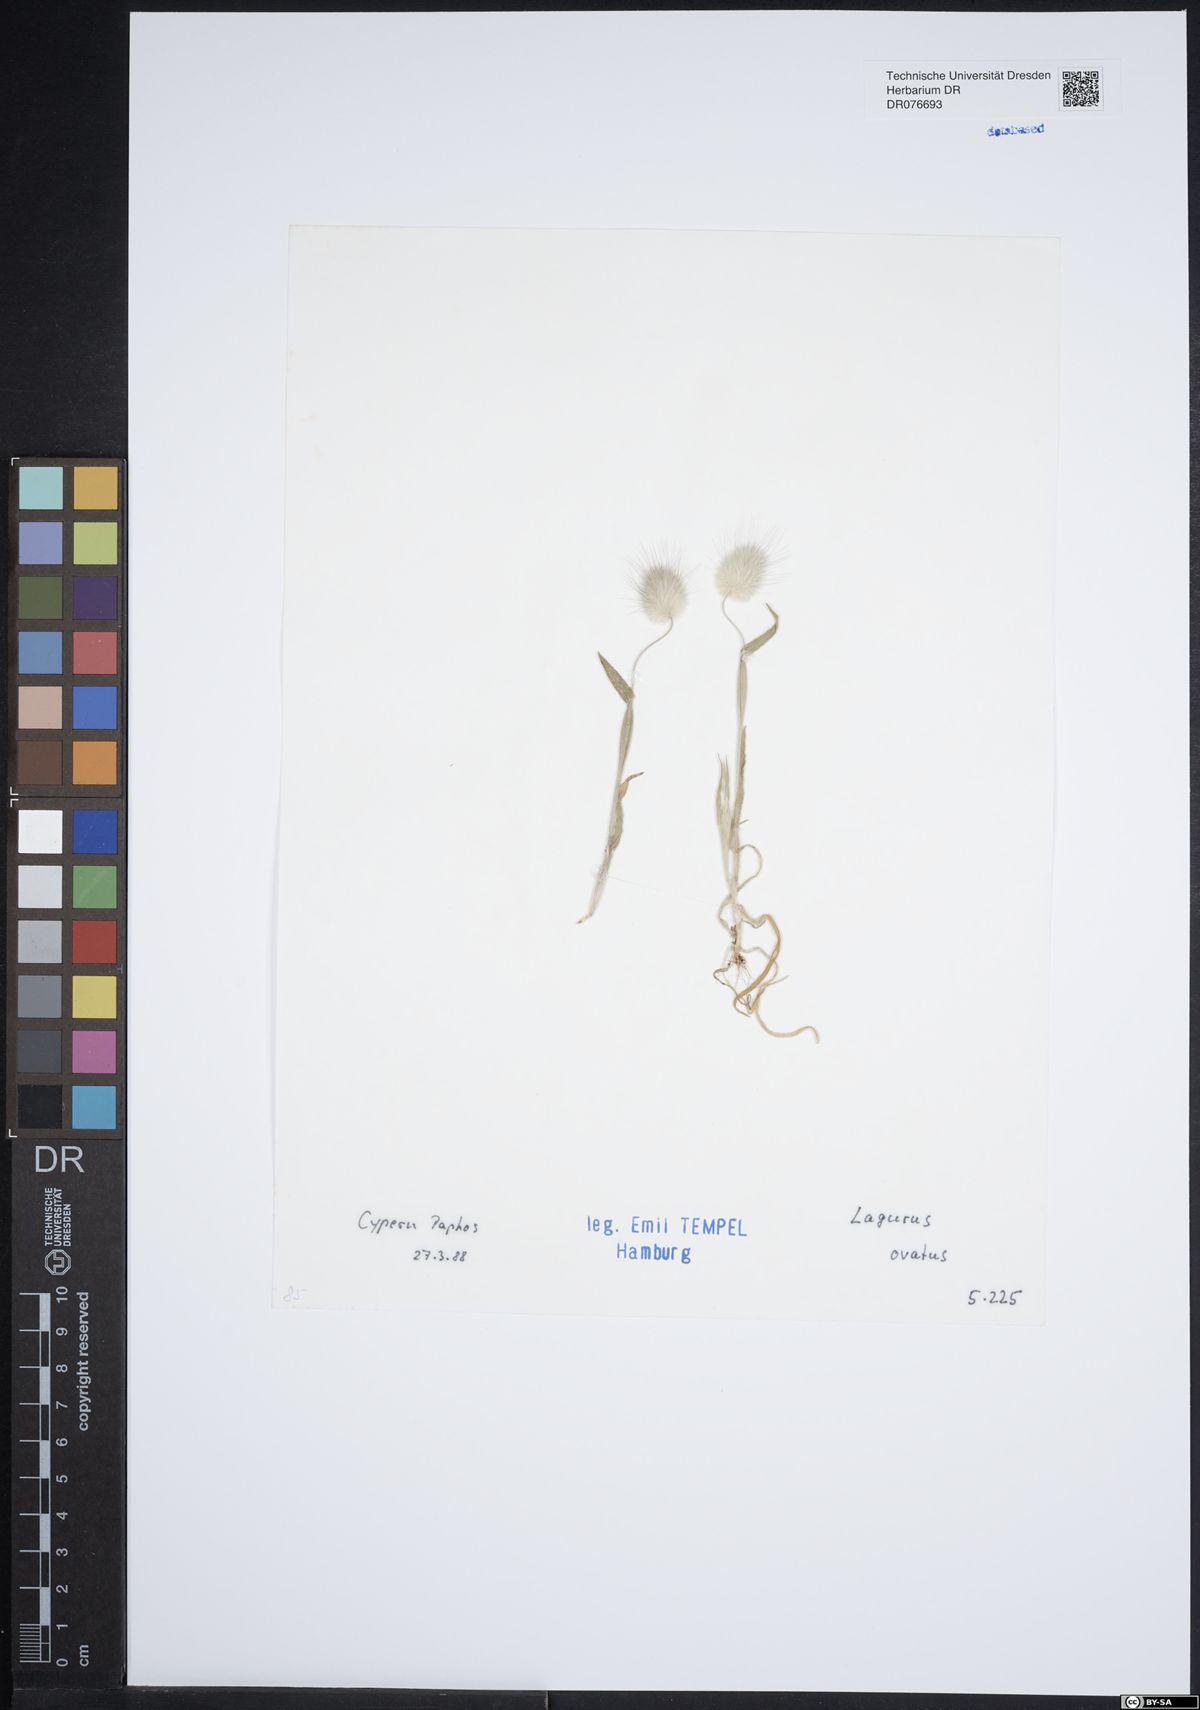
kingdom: Plantae
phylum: Tracheophyta
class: Liliopsida
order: Poales
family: Poaceae
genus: Lagurus
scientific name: Lagurus ovatus
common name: Hare's-tail
